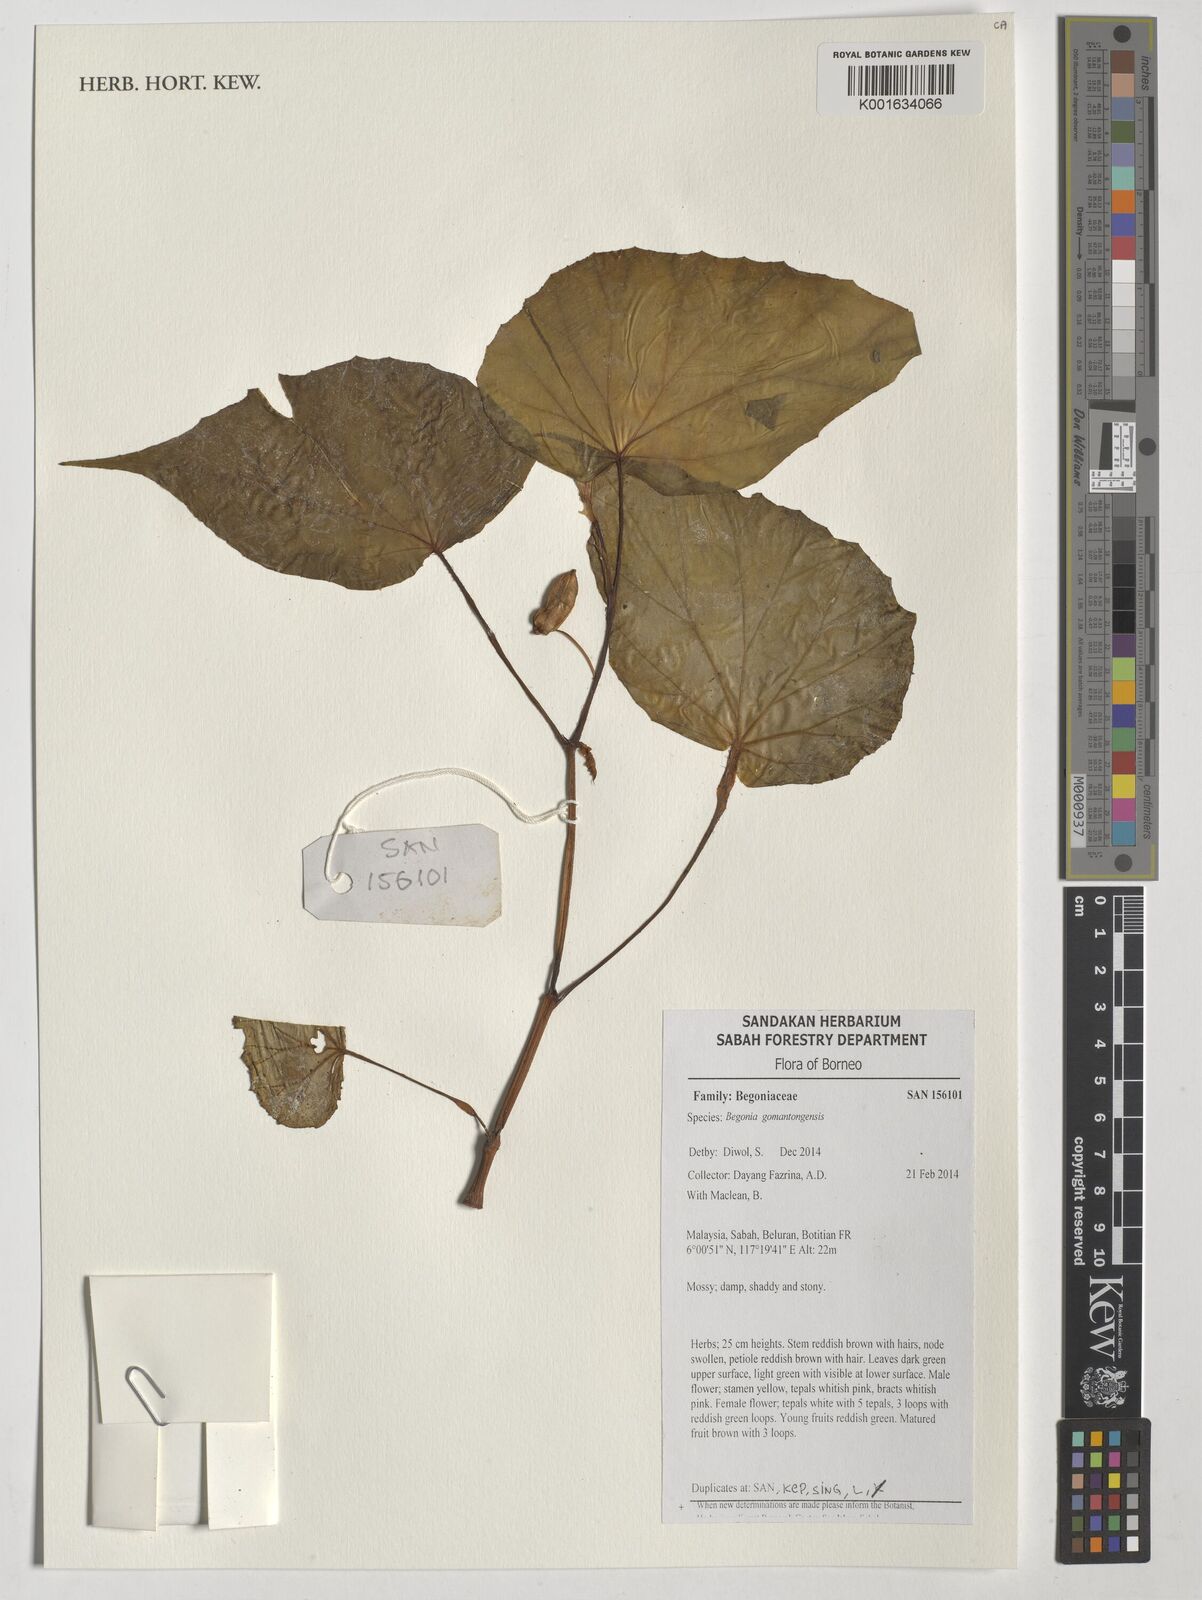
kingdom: Plantae
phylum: Tracheophyta
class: Magnoliopsida
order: Cucurbitales
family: Begoniaceae
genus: Begonia
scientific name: Begonia gomantongensis
